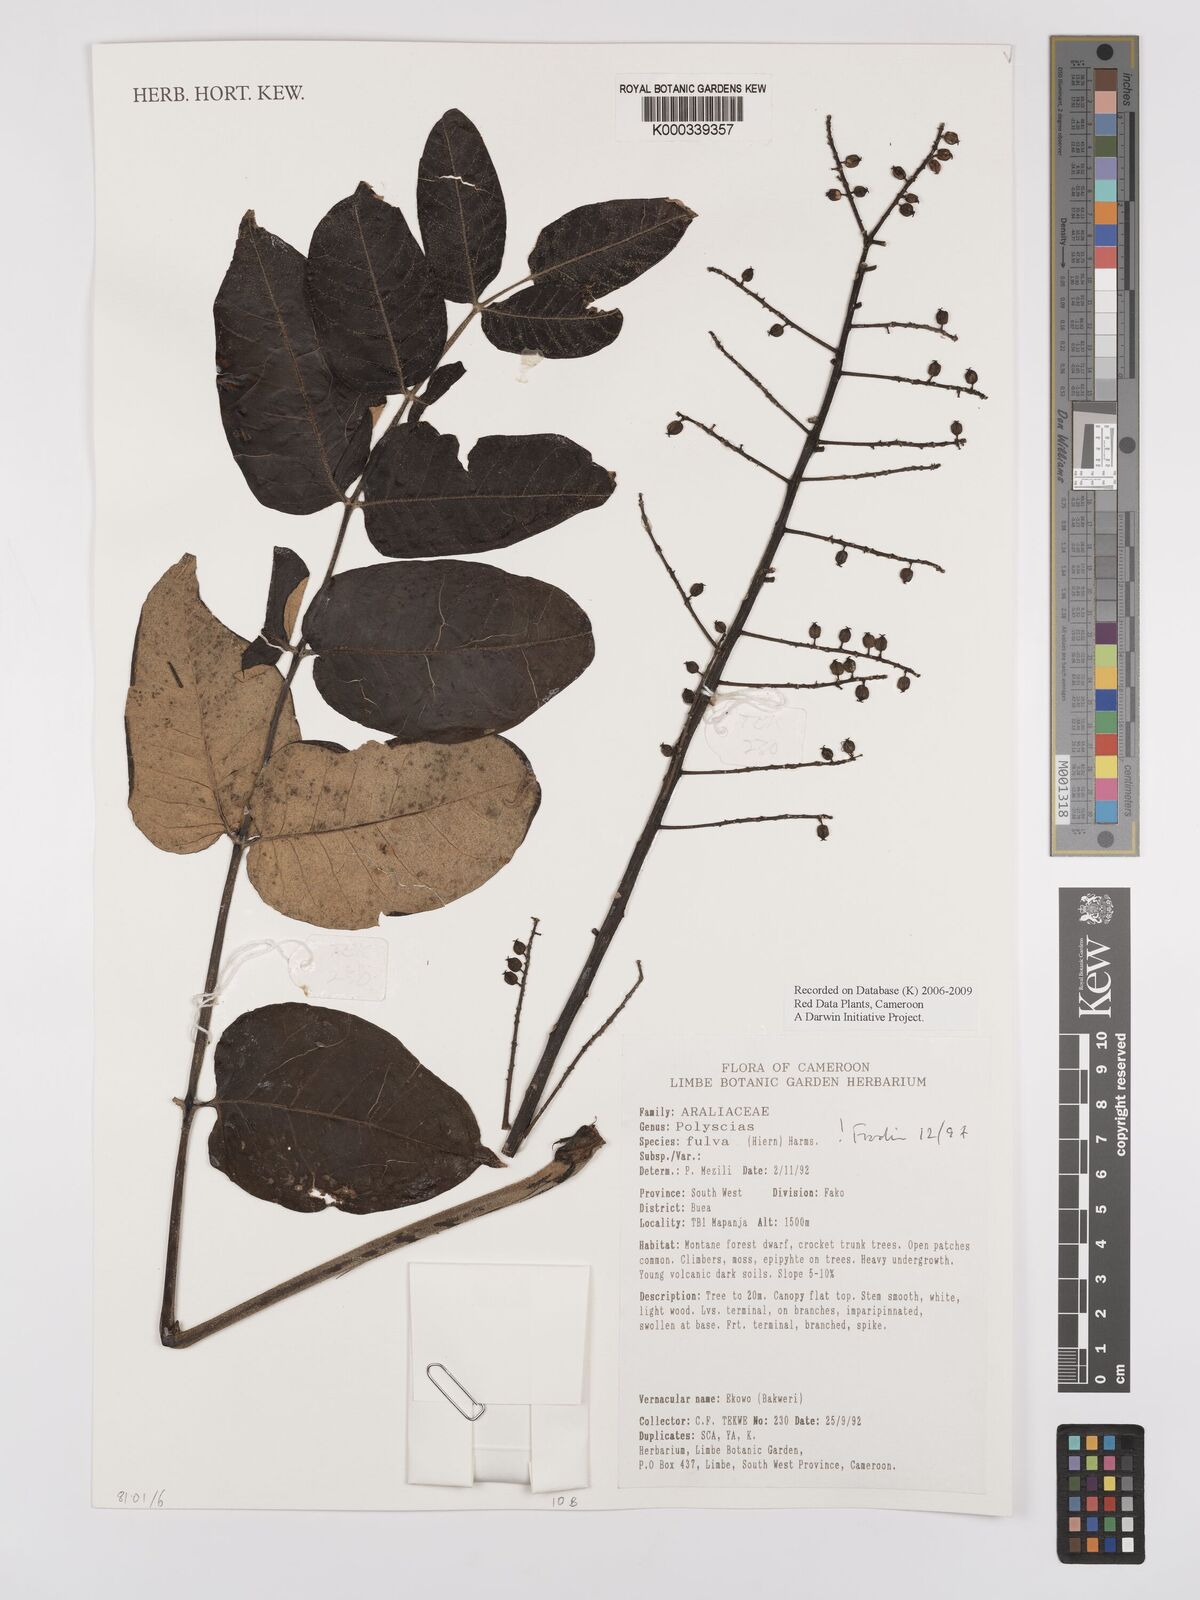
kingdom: Plantae
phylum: Tracheophyta
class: Magnoliopsida
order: Apiales
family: Araliaceae
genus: Polyscias
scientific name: Polyscias fulva
